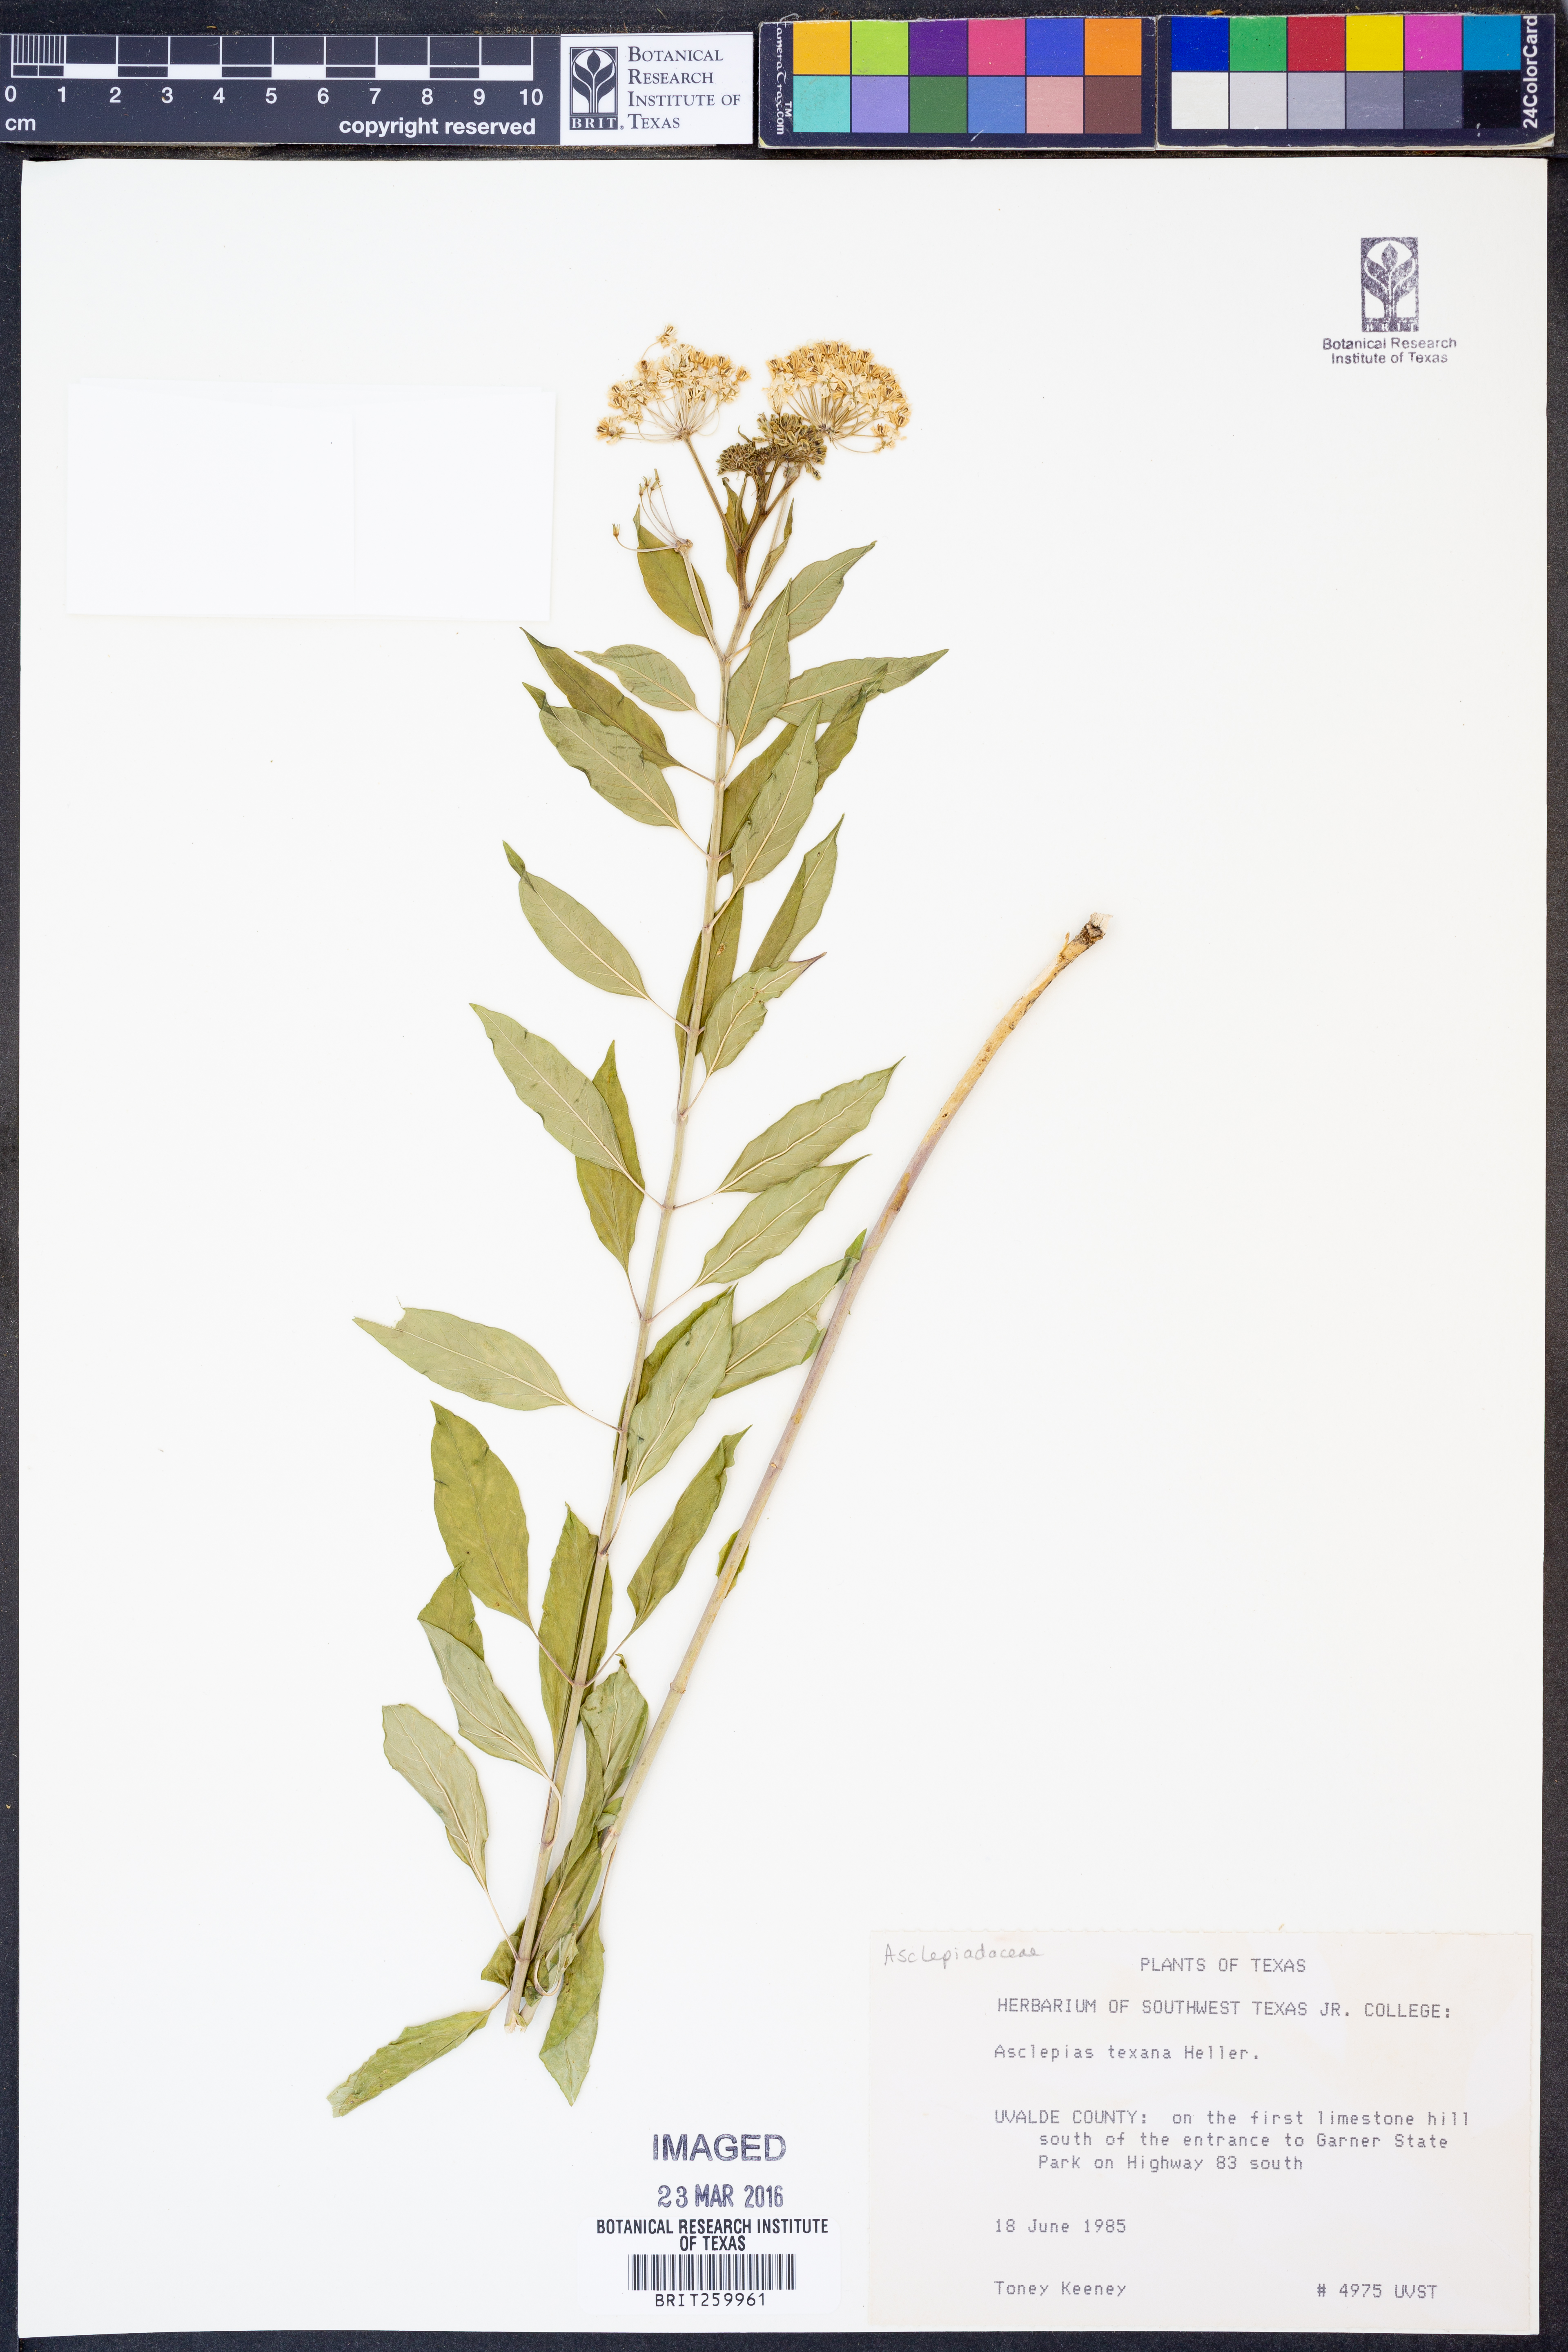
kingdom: Plantae
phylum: Tracheophyta
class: Magnoliopsida
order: Gentianales
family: Apocynaceae
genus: Asclepias
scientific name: Asclepias texana
